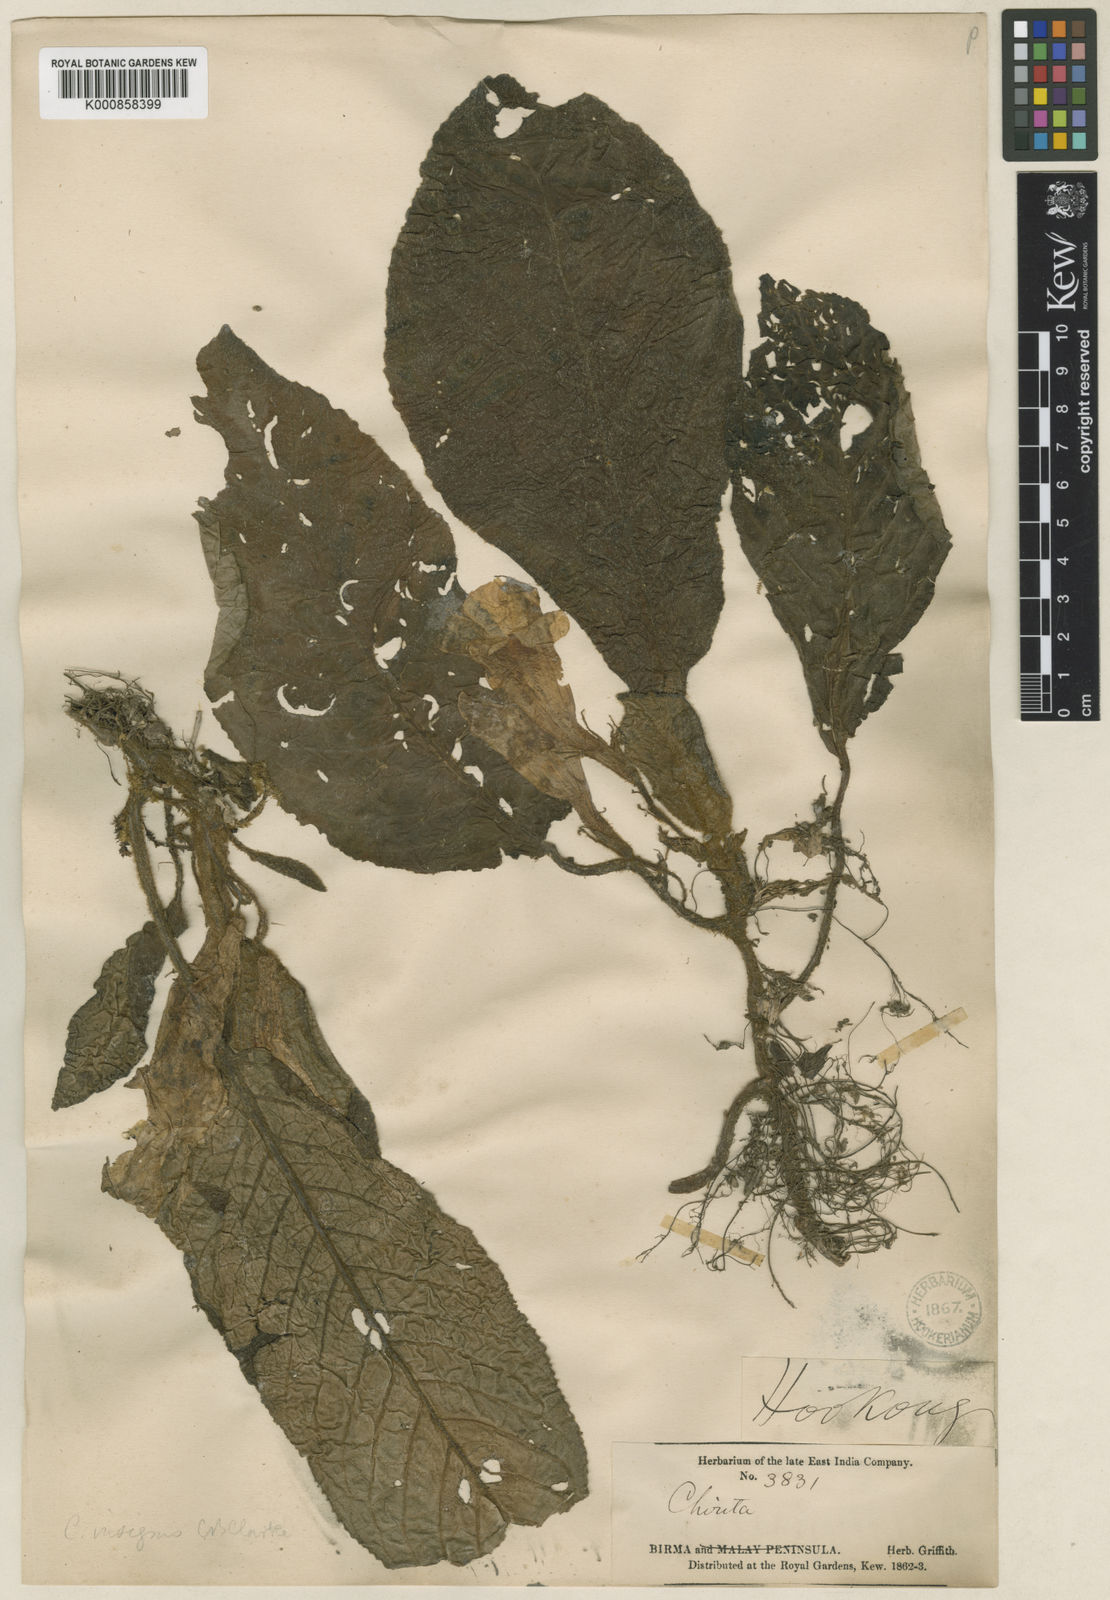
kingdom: Plantae
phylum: Tracheophyta
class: Magnoliopsida
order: Lamiales
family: Gesneriaceae
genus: Henckelia
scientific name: Henckelia insignis
